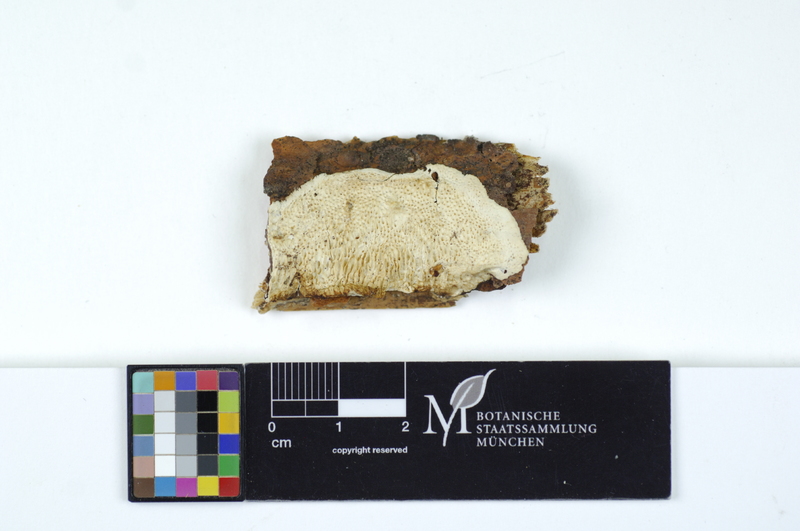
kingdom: Plantae
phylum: Tracheophyta
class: Pinopsida
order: Pinales
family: Pinaceae
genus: Pinus
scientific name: Pinus
